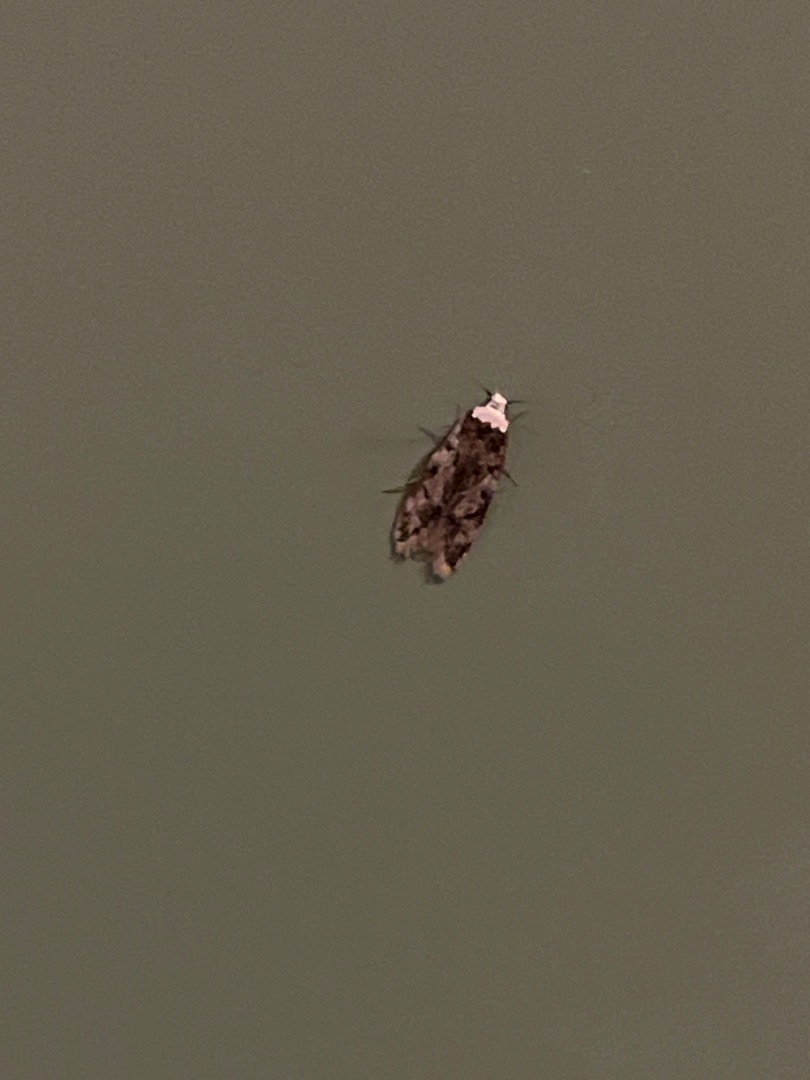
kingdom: Animalia
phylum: Arthropoda
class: Insecta
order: Lepidoptera
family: Oecophoridae
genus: Endrosis
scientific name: Endrosis sarcitrella
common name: Klistermøl
